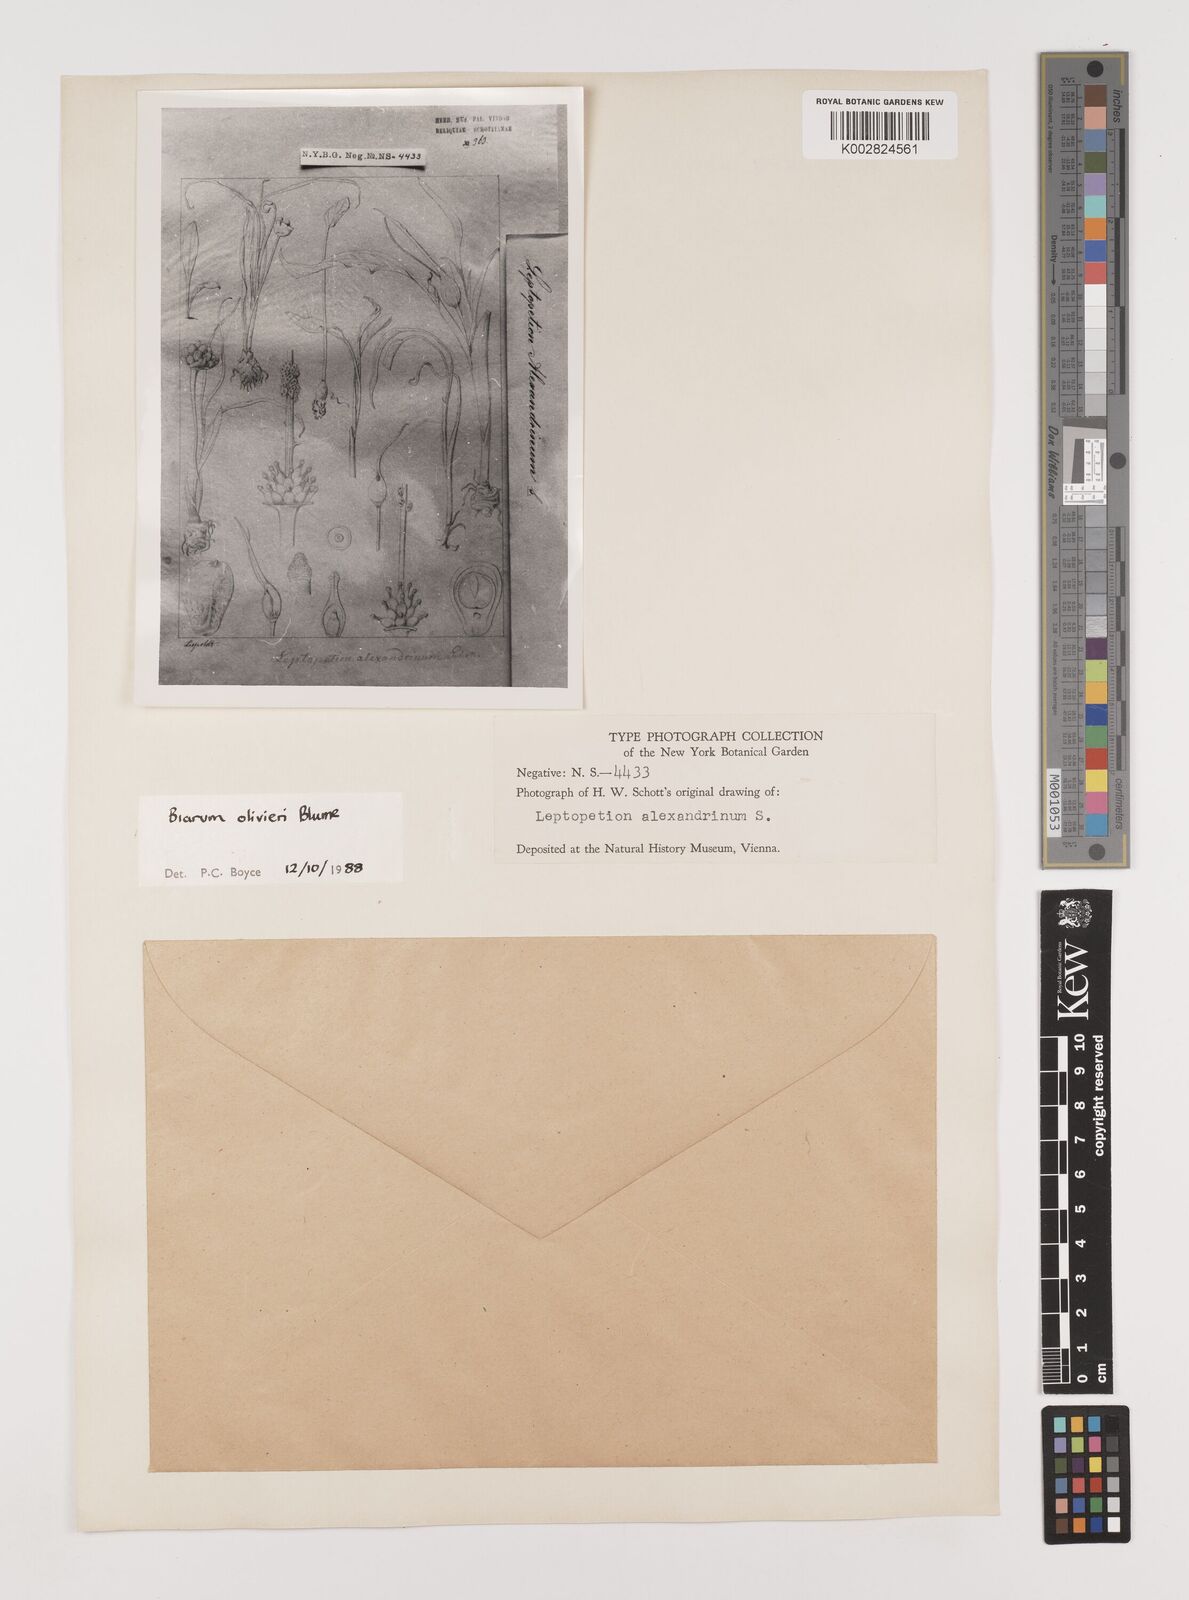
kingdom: Plantae
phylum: Tracheophyta
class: Liliopsida
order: Alismatales
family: Araceae
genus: Biarum
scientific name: Biarum olivieri
